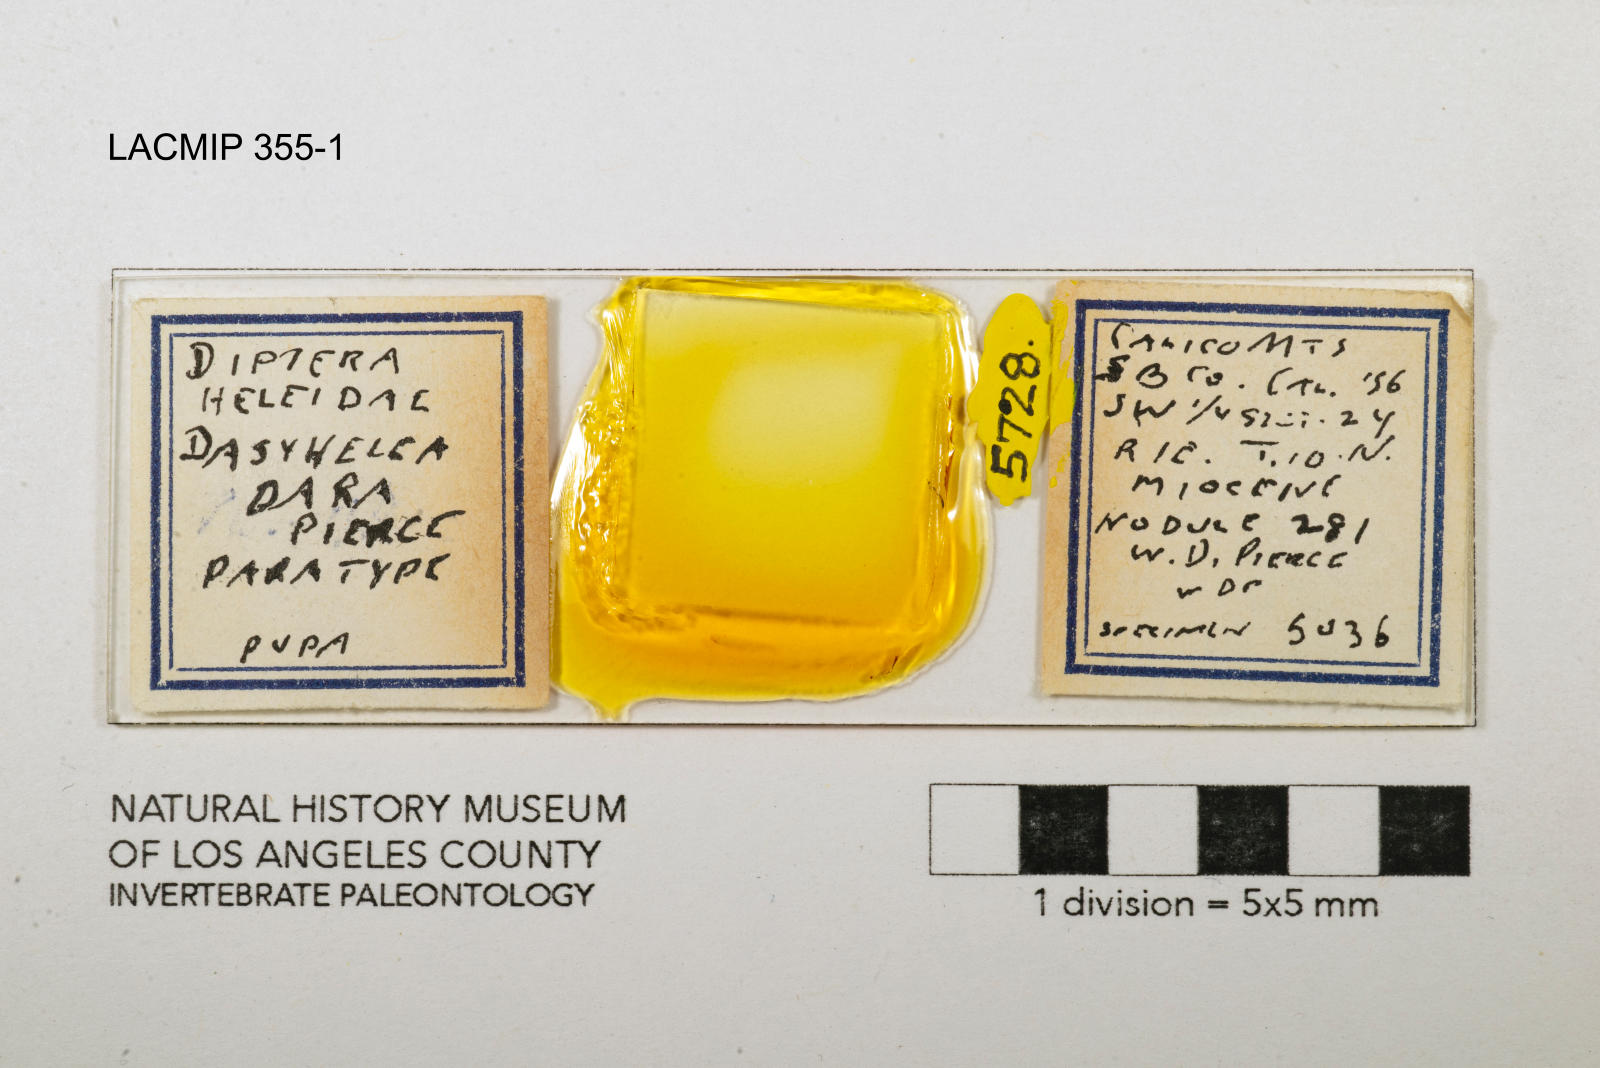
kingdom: Animalia
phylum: Arthropoda
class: Insecta
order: Diptera
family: Ceratopogonidae
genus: Dasyhelea
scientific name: Dasyhelea dara
